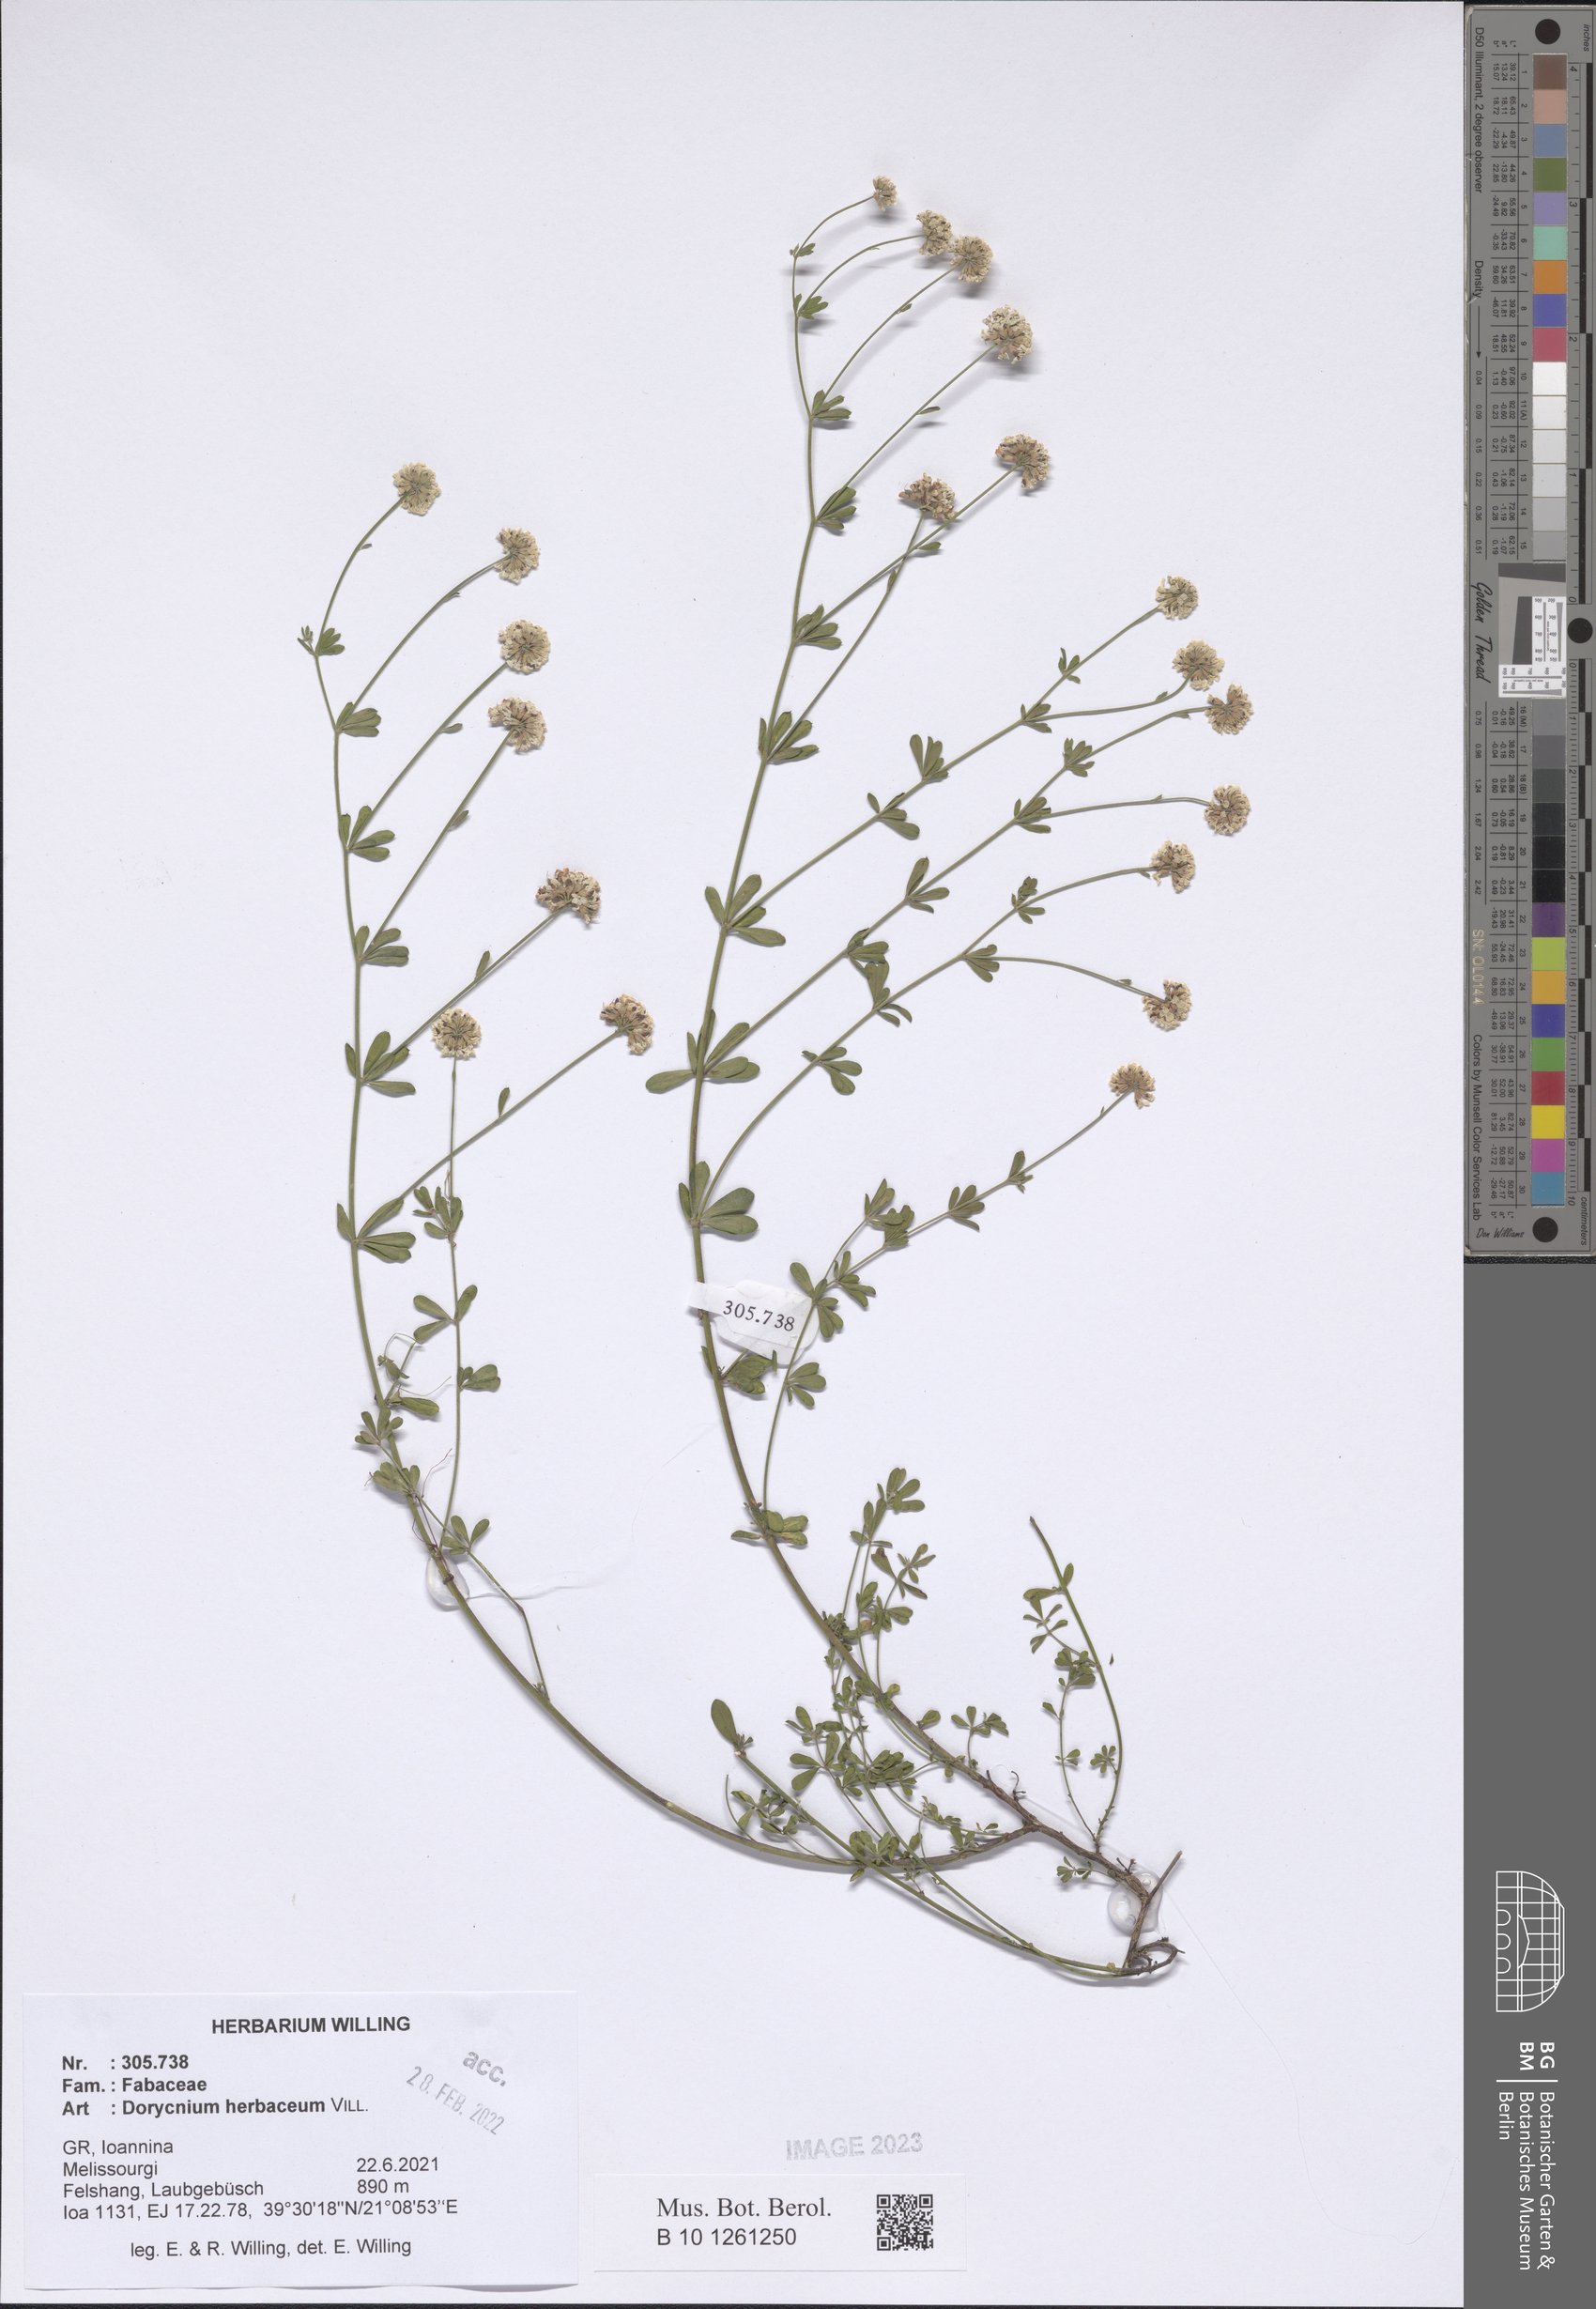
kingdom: Plantae
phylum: Tracheophyta
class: Magnoliopsida
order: Fabales
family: Fabaceae
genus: Lotus
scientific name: Lotus herbaceus
